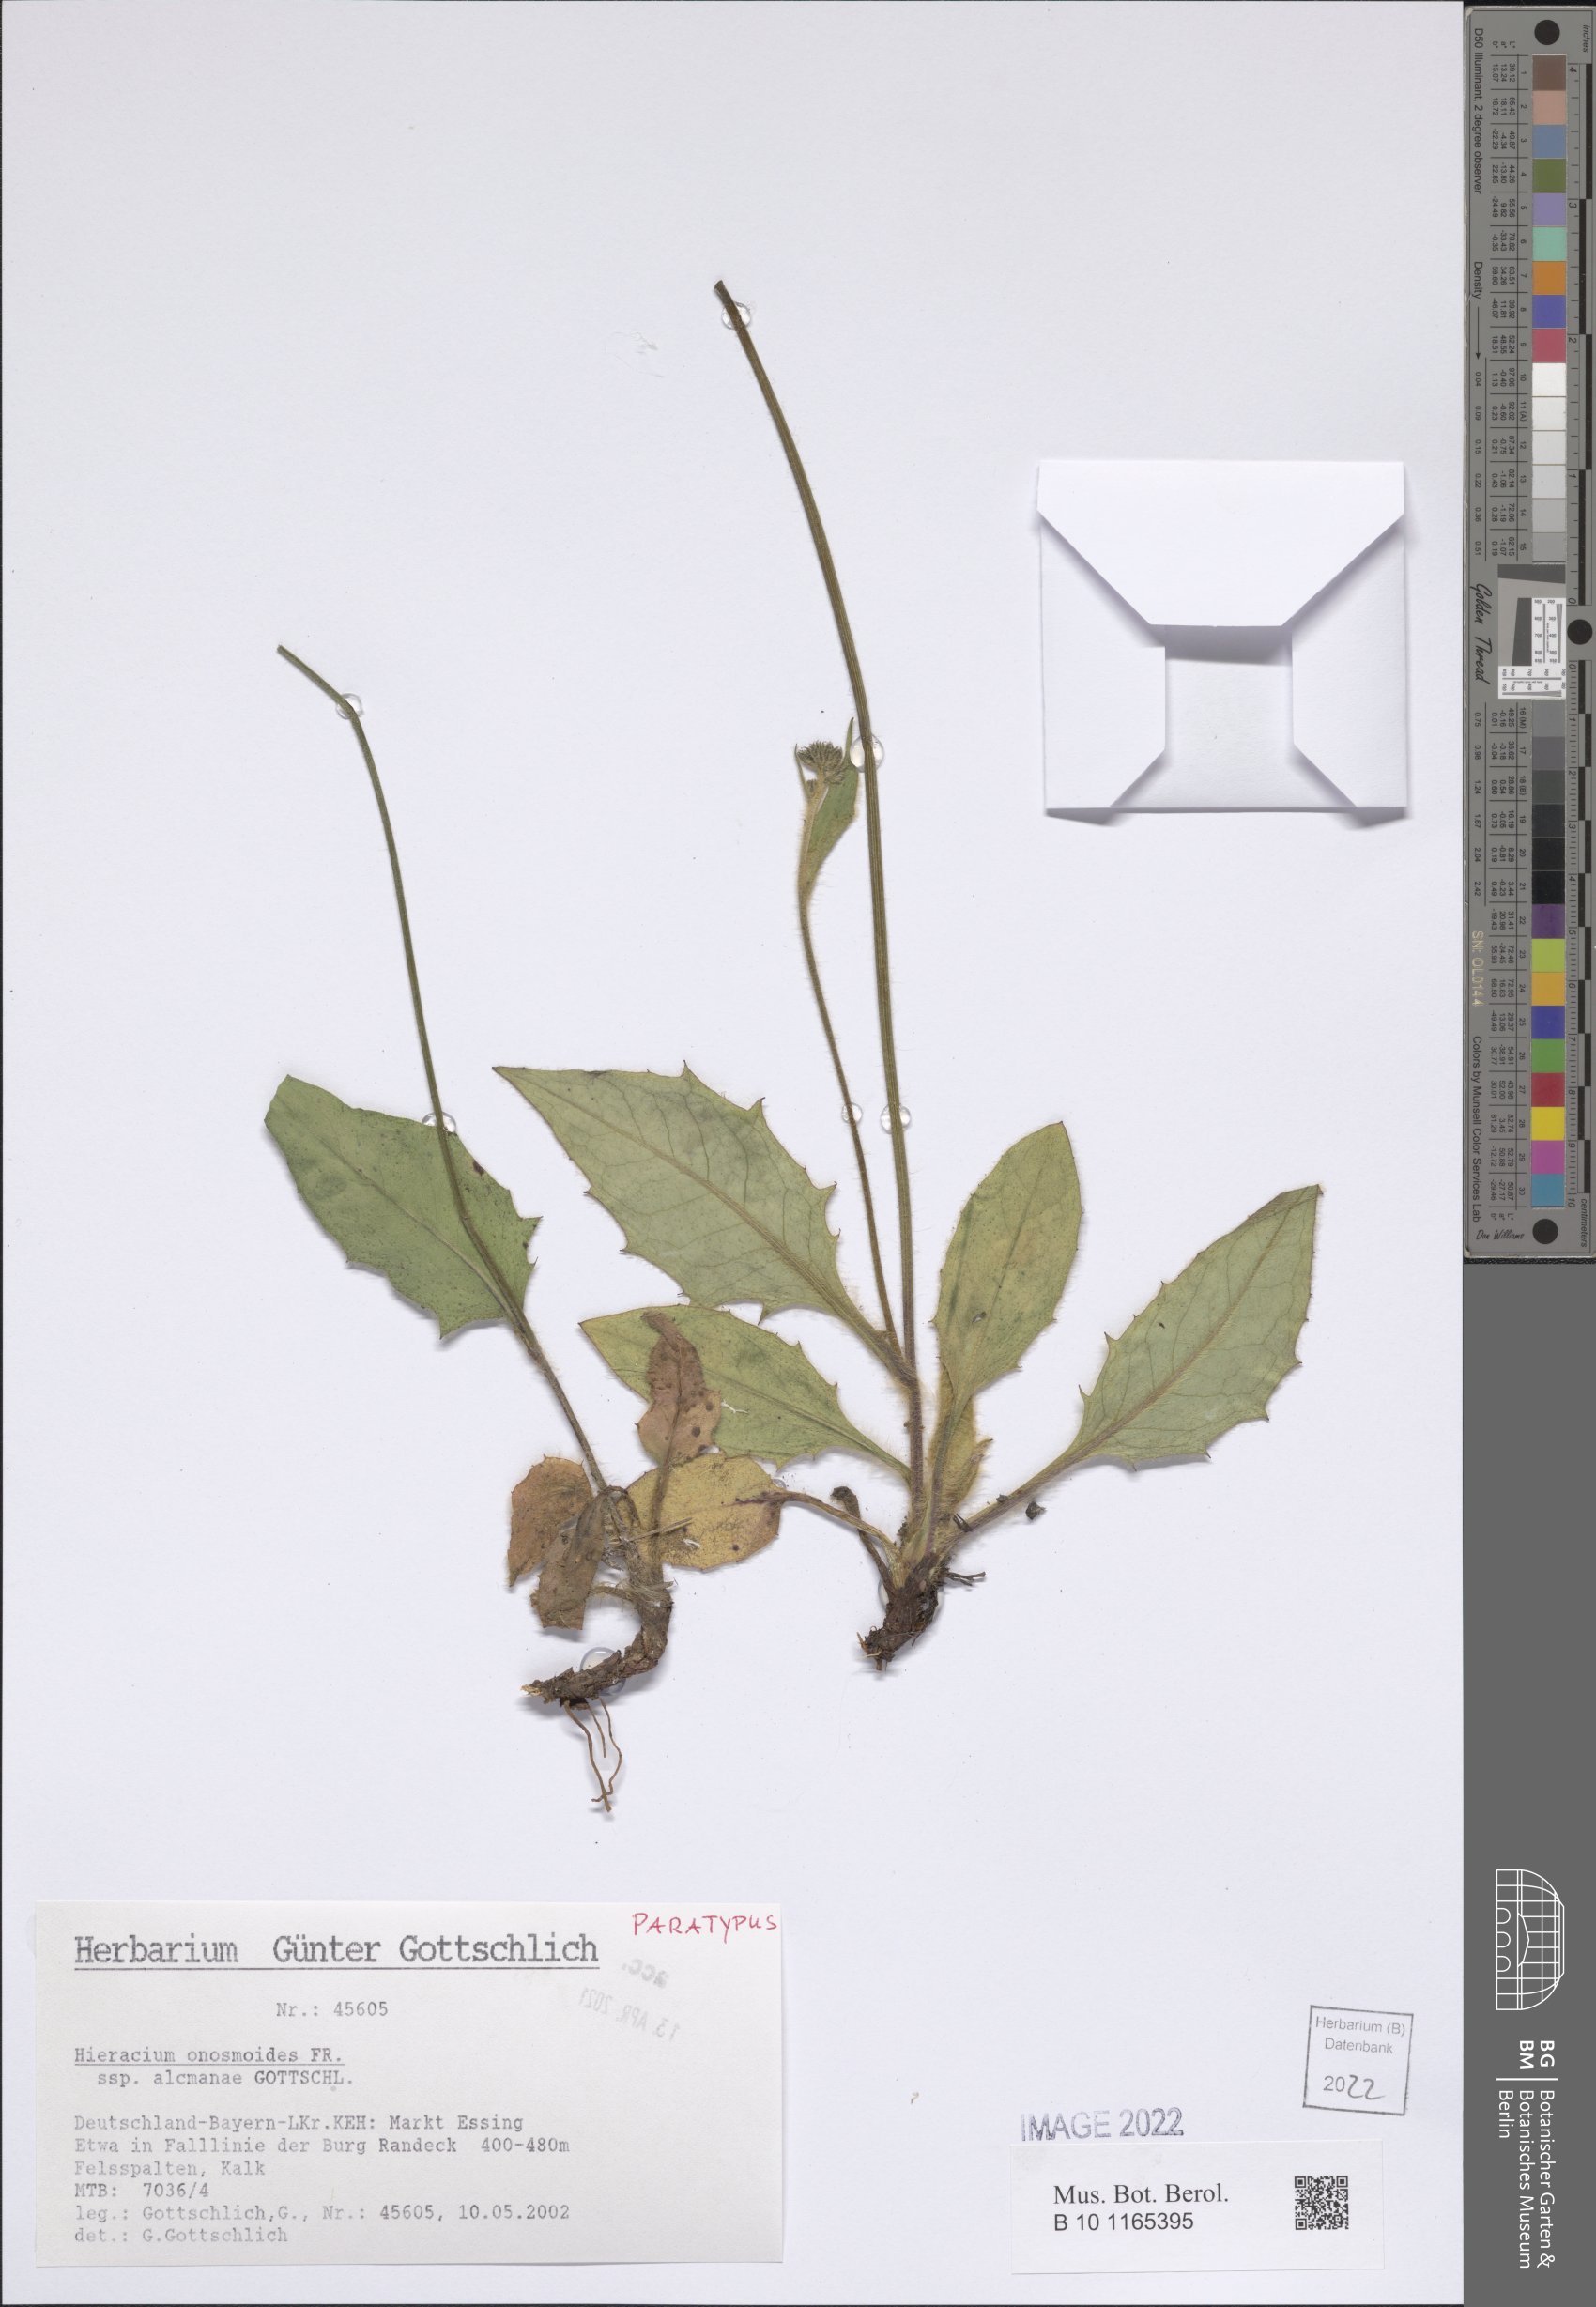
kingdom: Plantae
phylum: Tracheophyta
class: Magnoliopsida
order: Asterales
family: Asteraceae
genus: Hieracium
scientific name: Hieracium onosmoides
